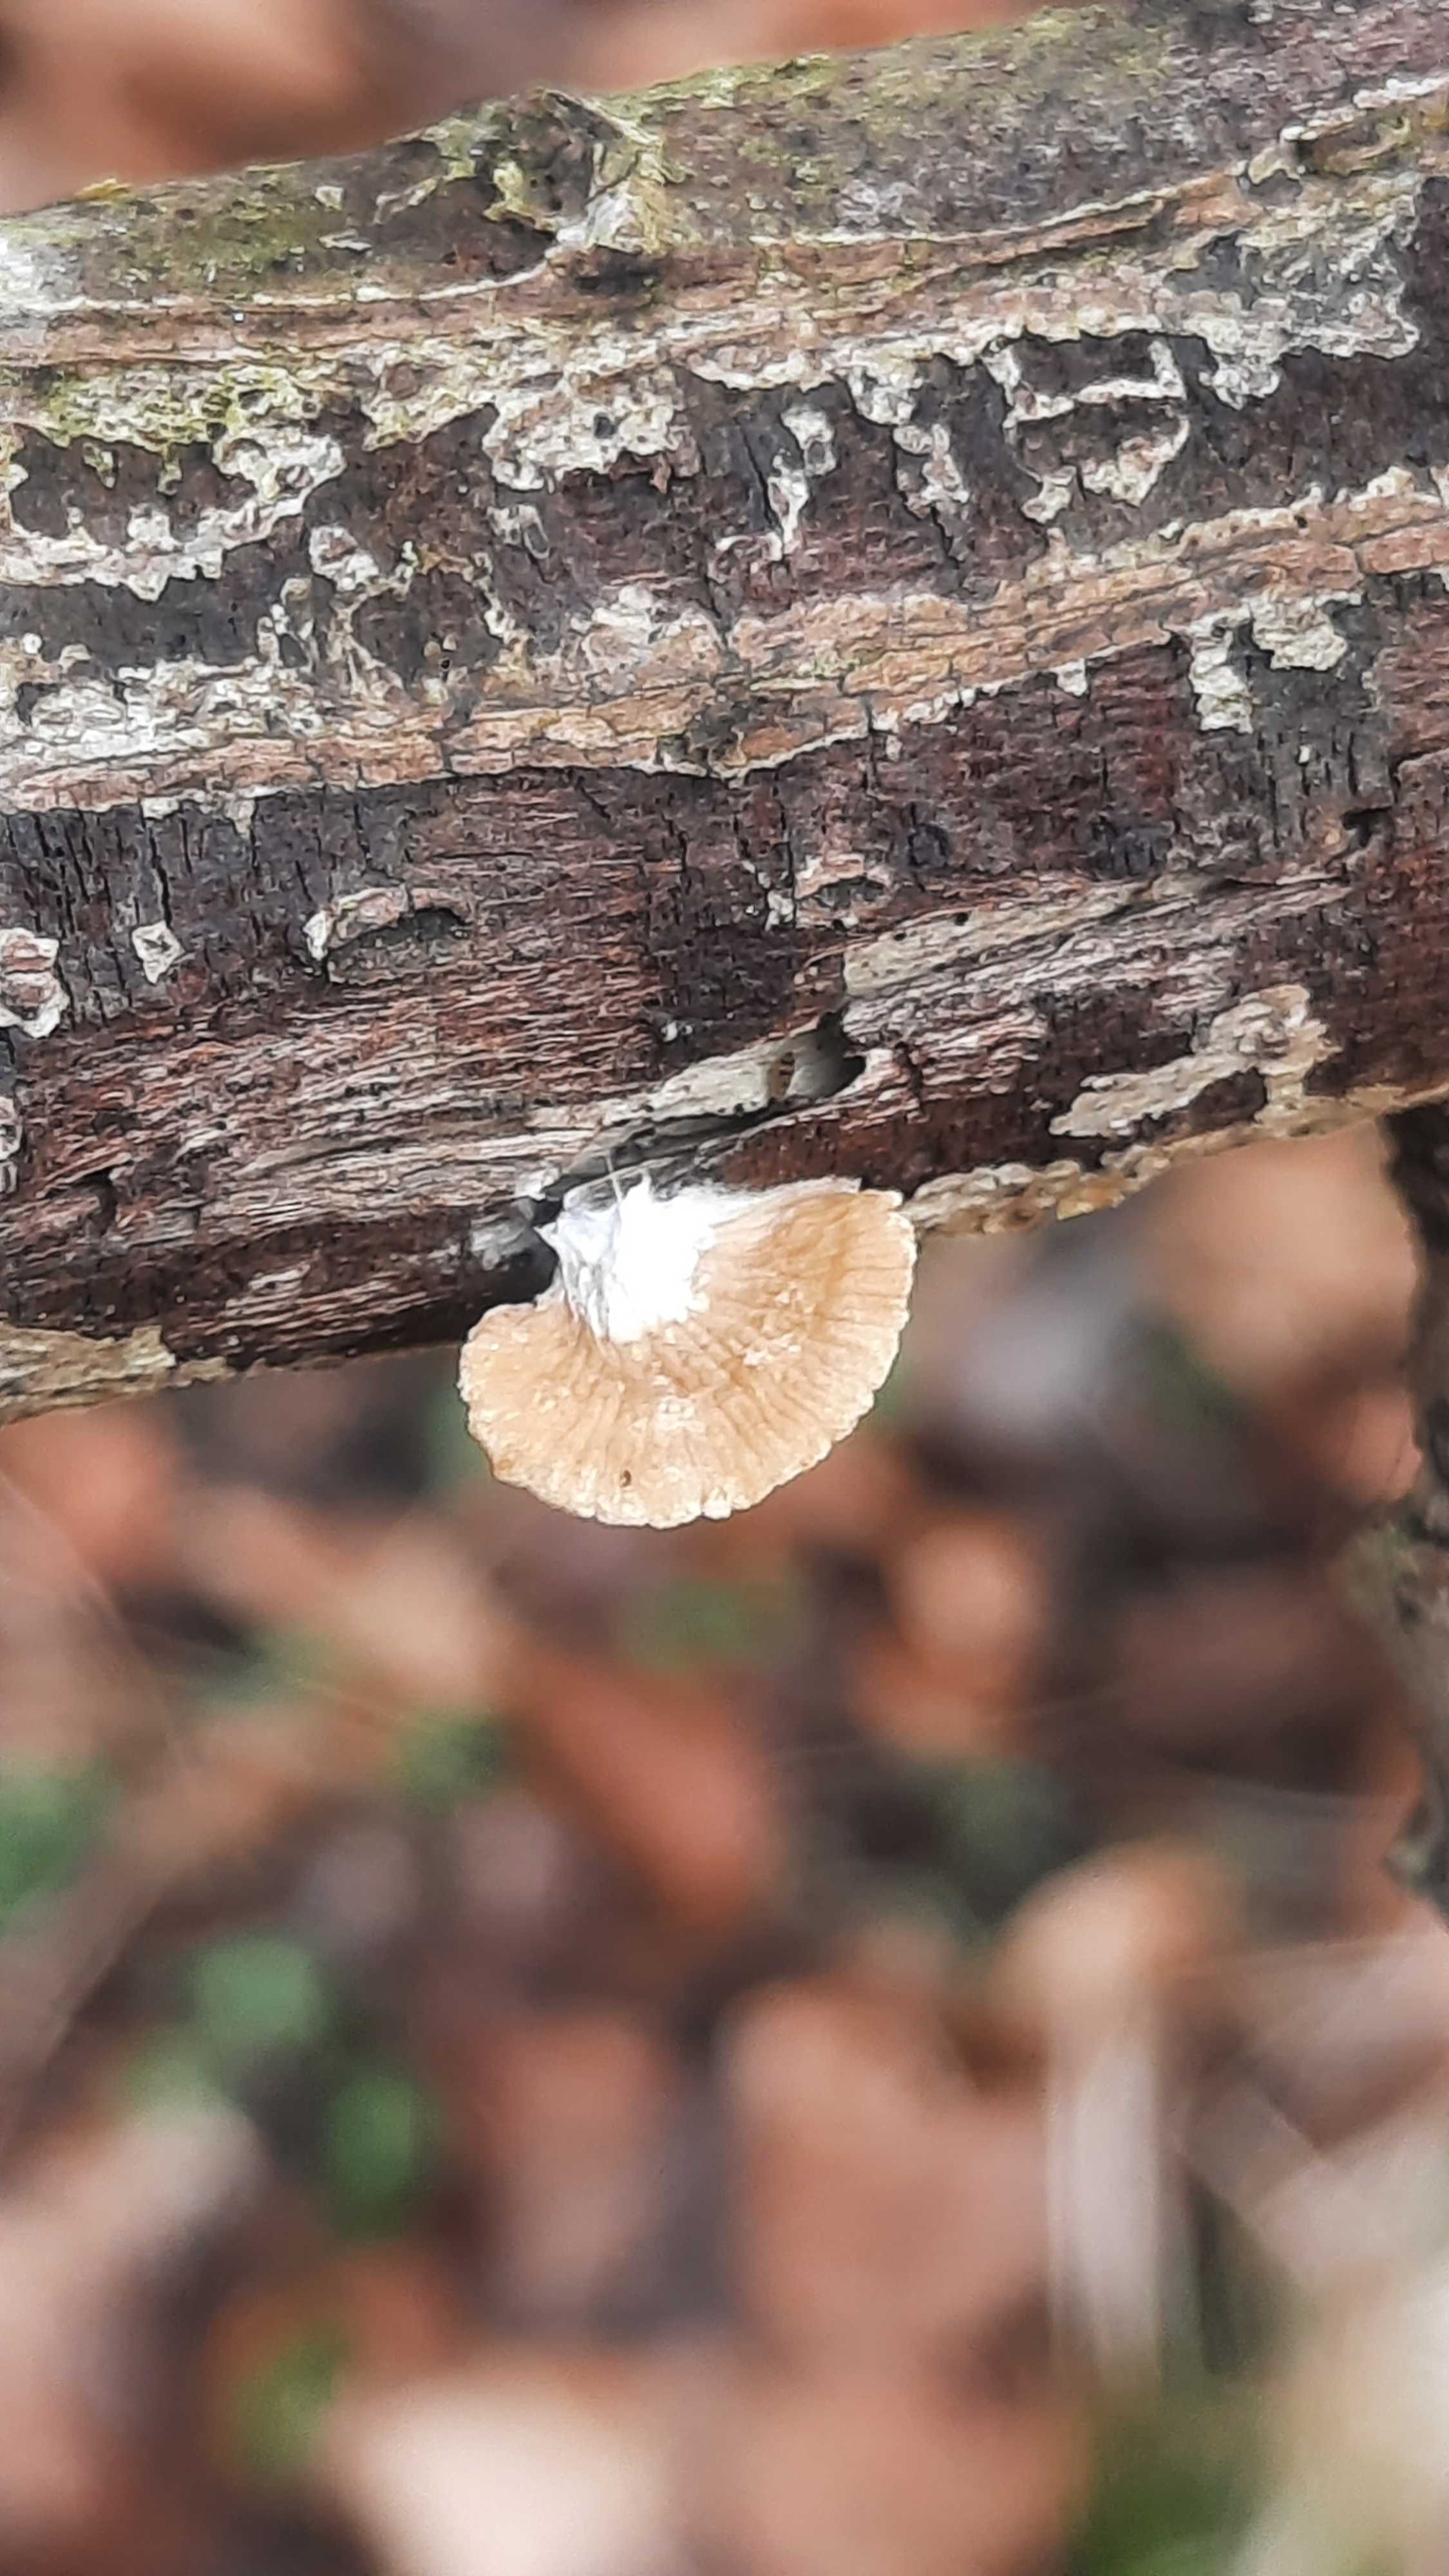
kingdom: Fungi
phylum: Basidiomycota
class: Agaricomycetes
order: Agaricales
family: Crepidotaceae
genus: Crepidotus
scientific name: Crepidotus
